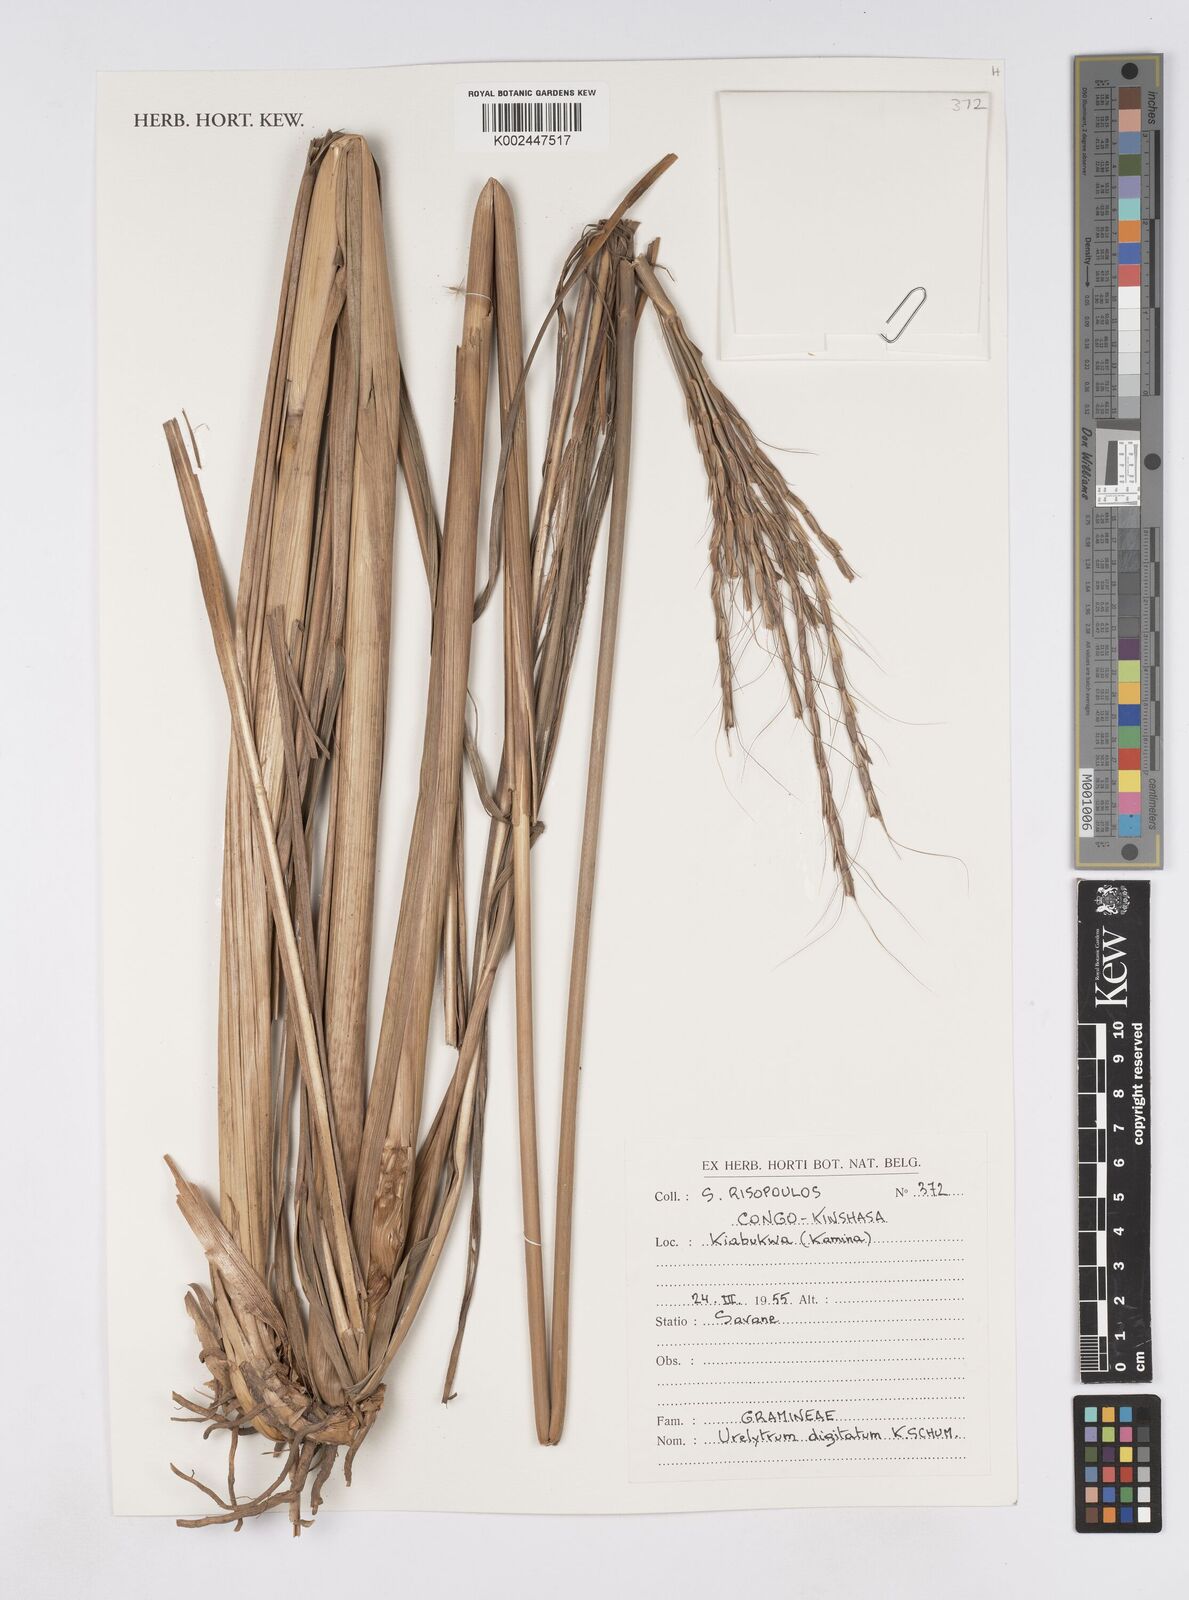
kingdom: Plantae
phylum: Tracheophyta
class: Liliopsida
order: Poales
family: Poaceae
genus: Urelytrum
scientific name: Urelytrum digitatum
